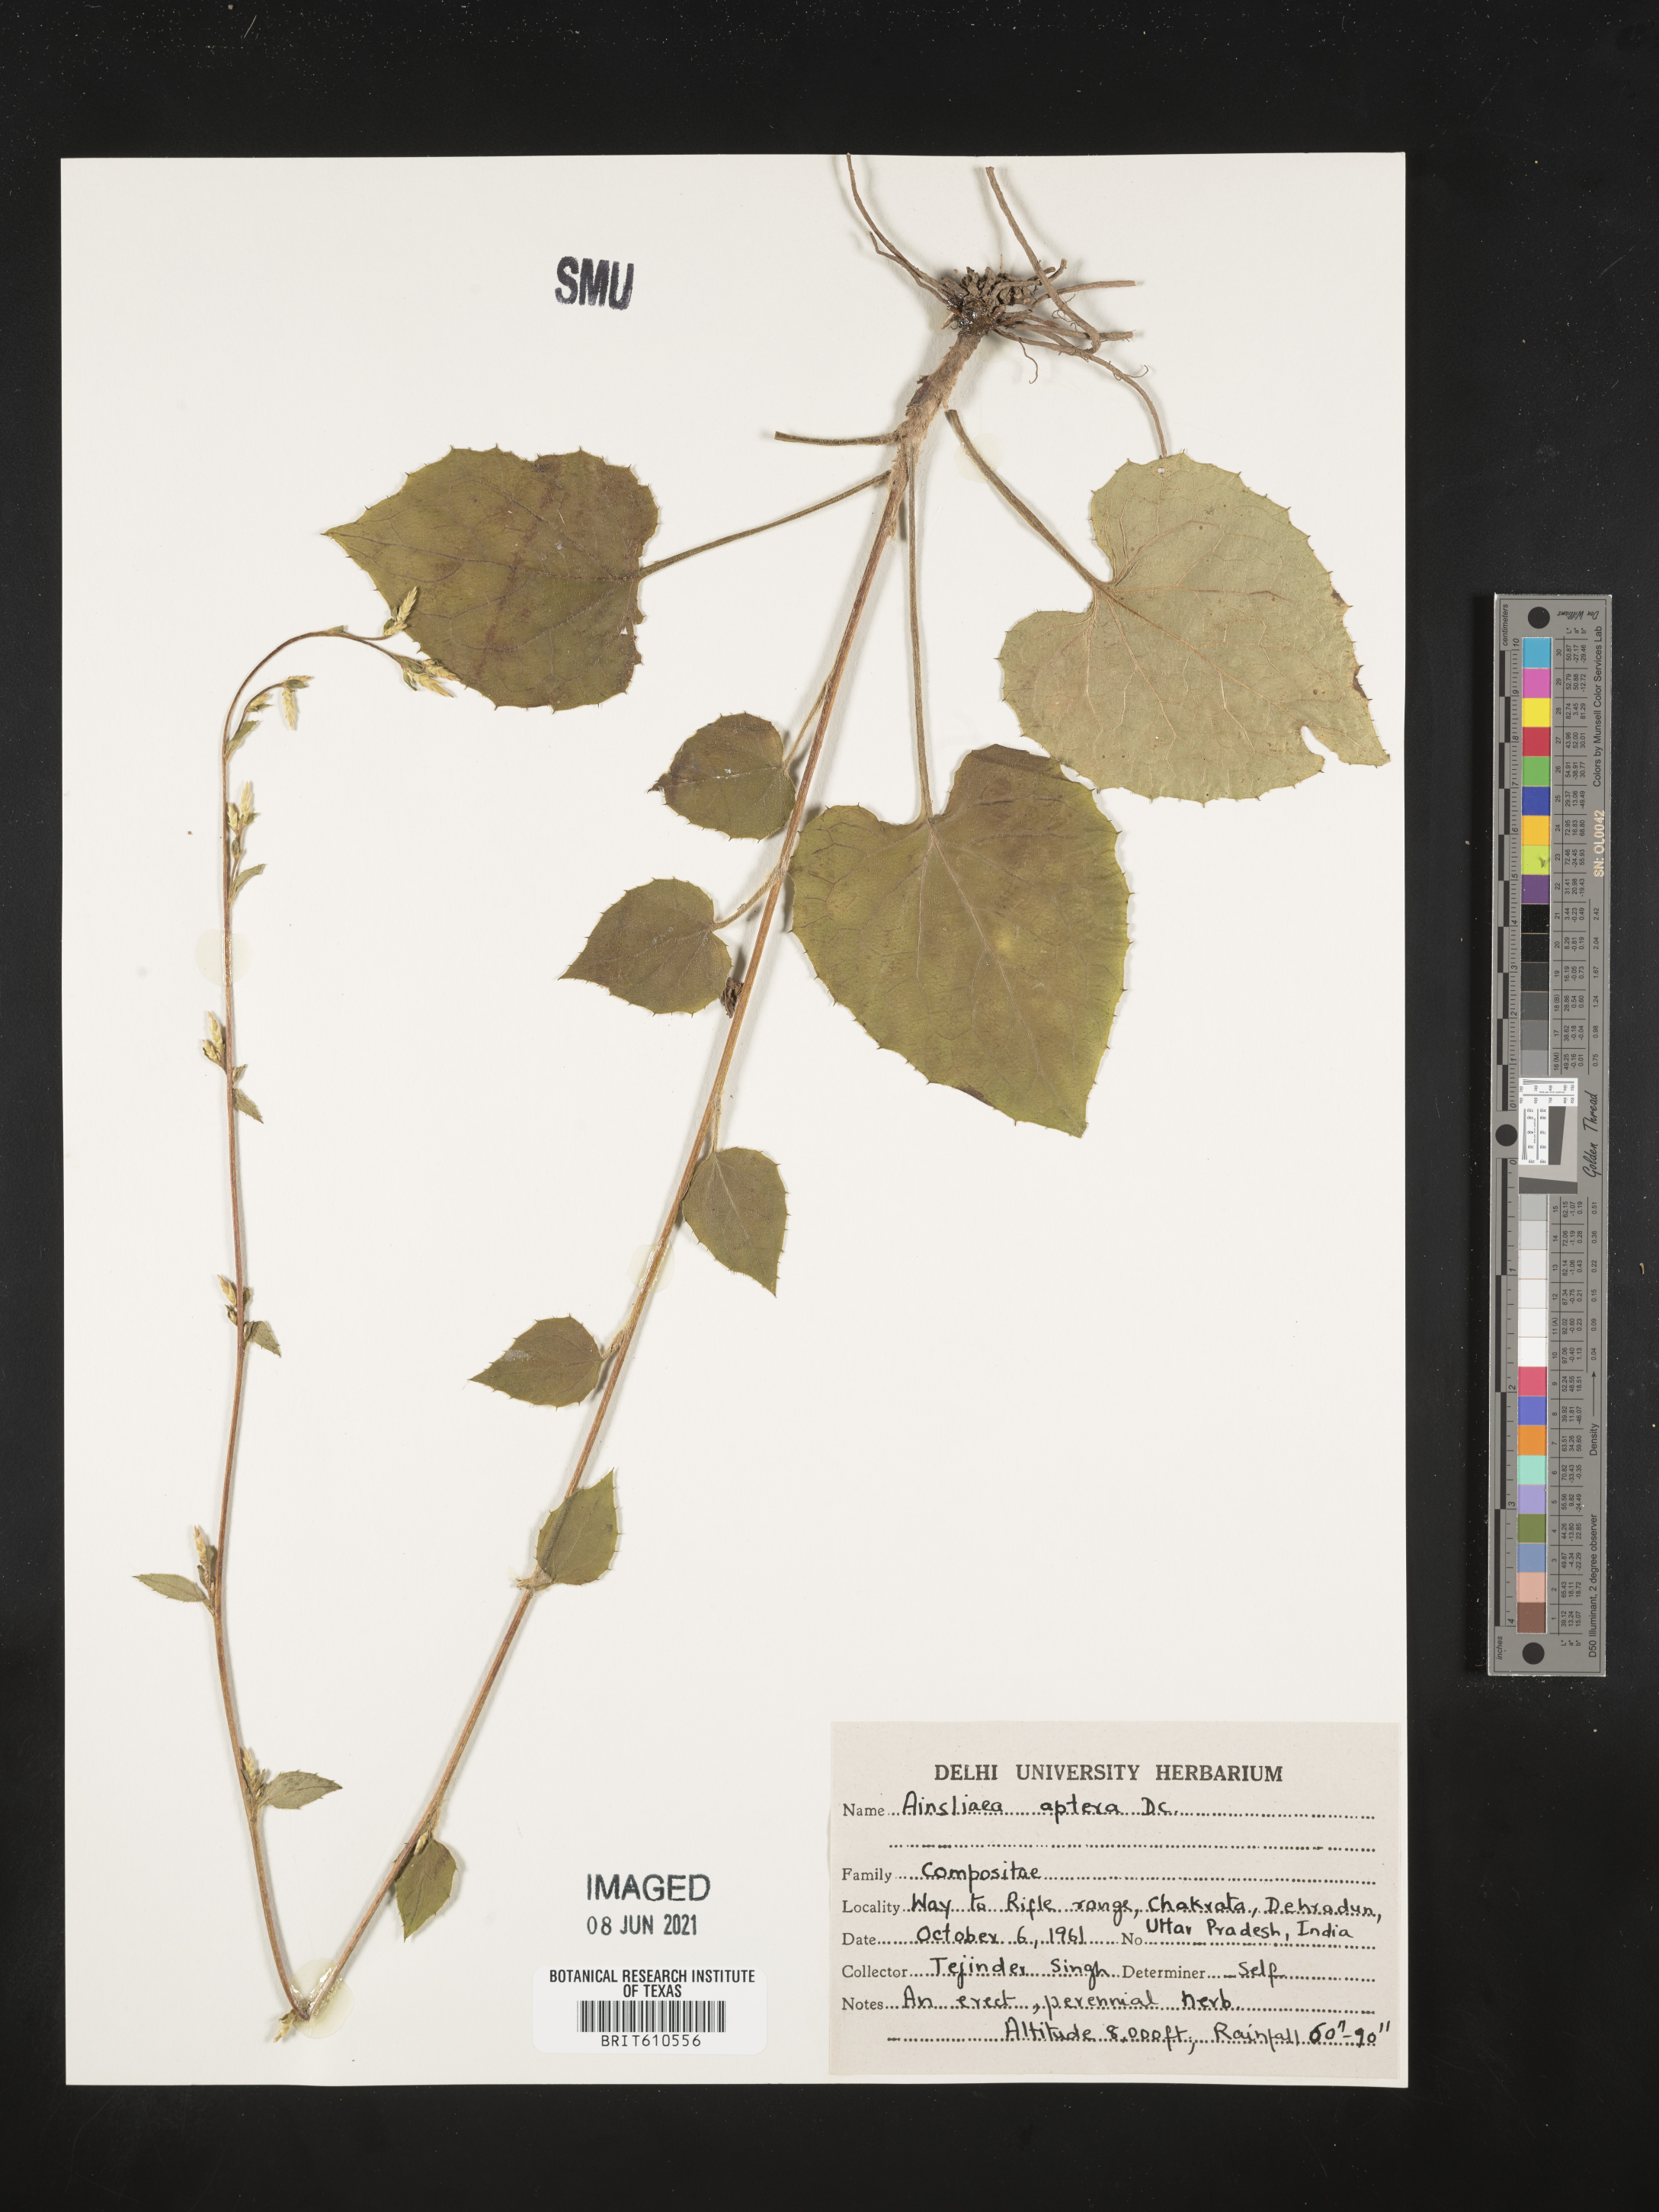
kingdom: Plantae
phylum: Tracheophyta
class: Magnoliopsida
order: Asterales
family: Asteraceae
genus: Ainsliaea
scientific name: Ainsliaea aptera
